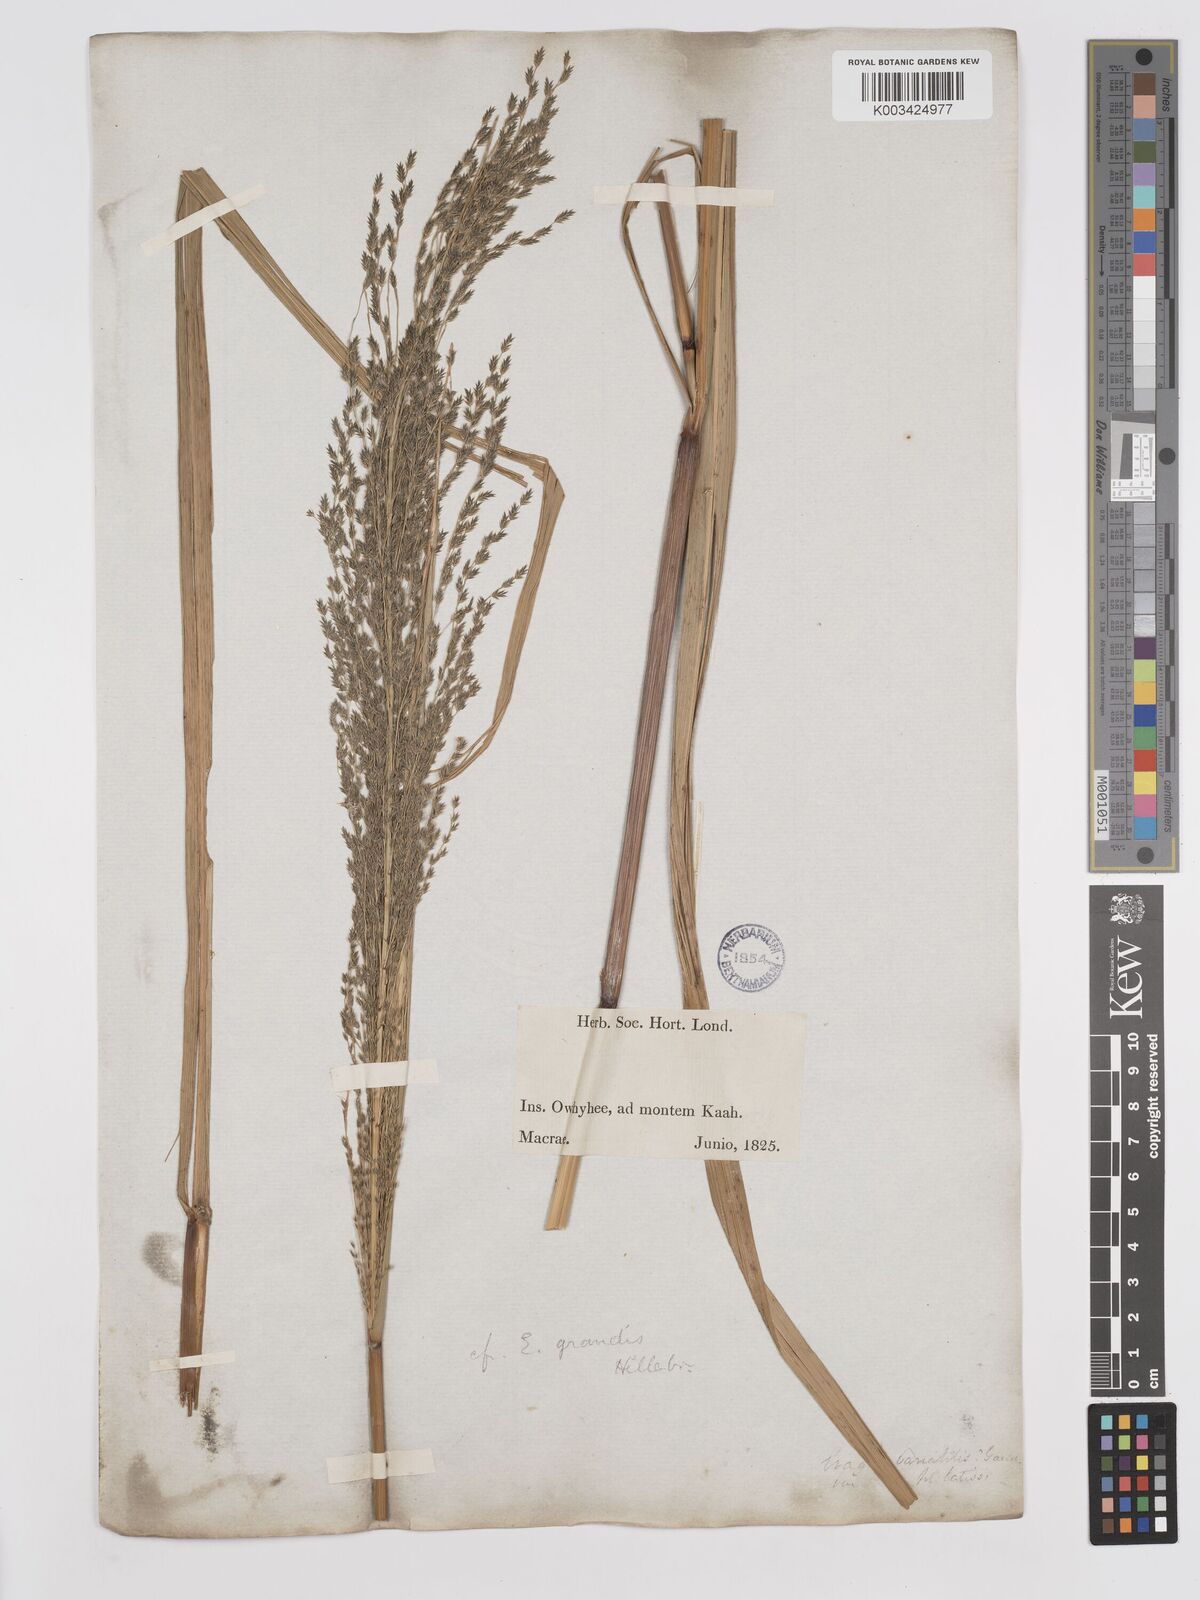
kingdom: Plantae
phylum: Tracheophyta
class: Liliopsida
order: Poales
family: Poaceae
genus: Eragrostis
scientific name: Eragrostis grandis
